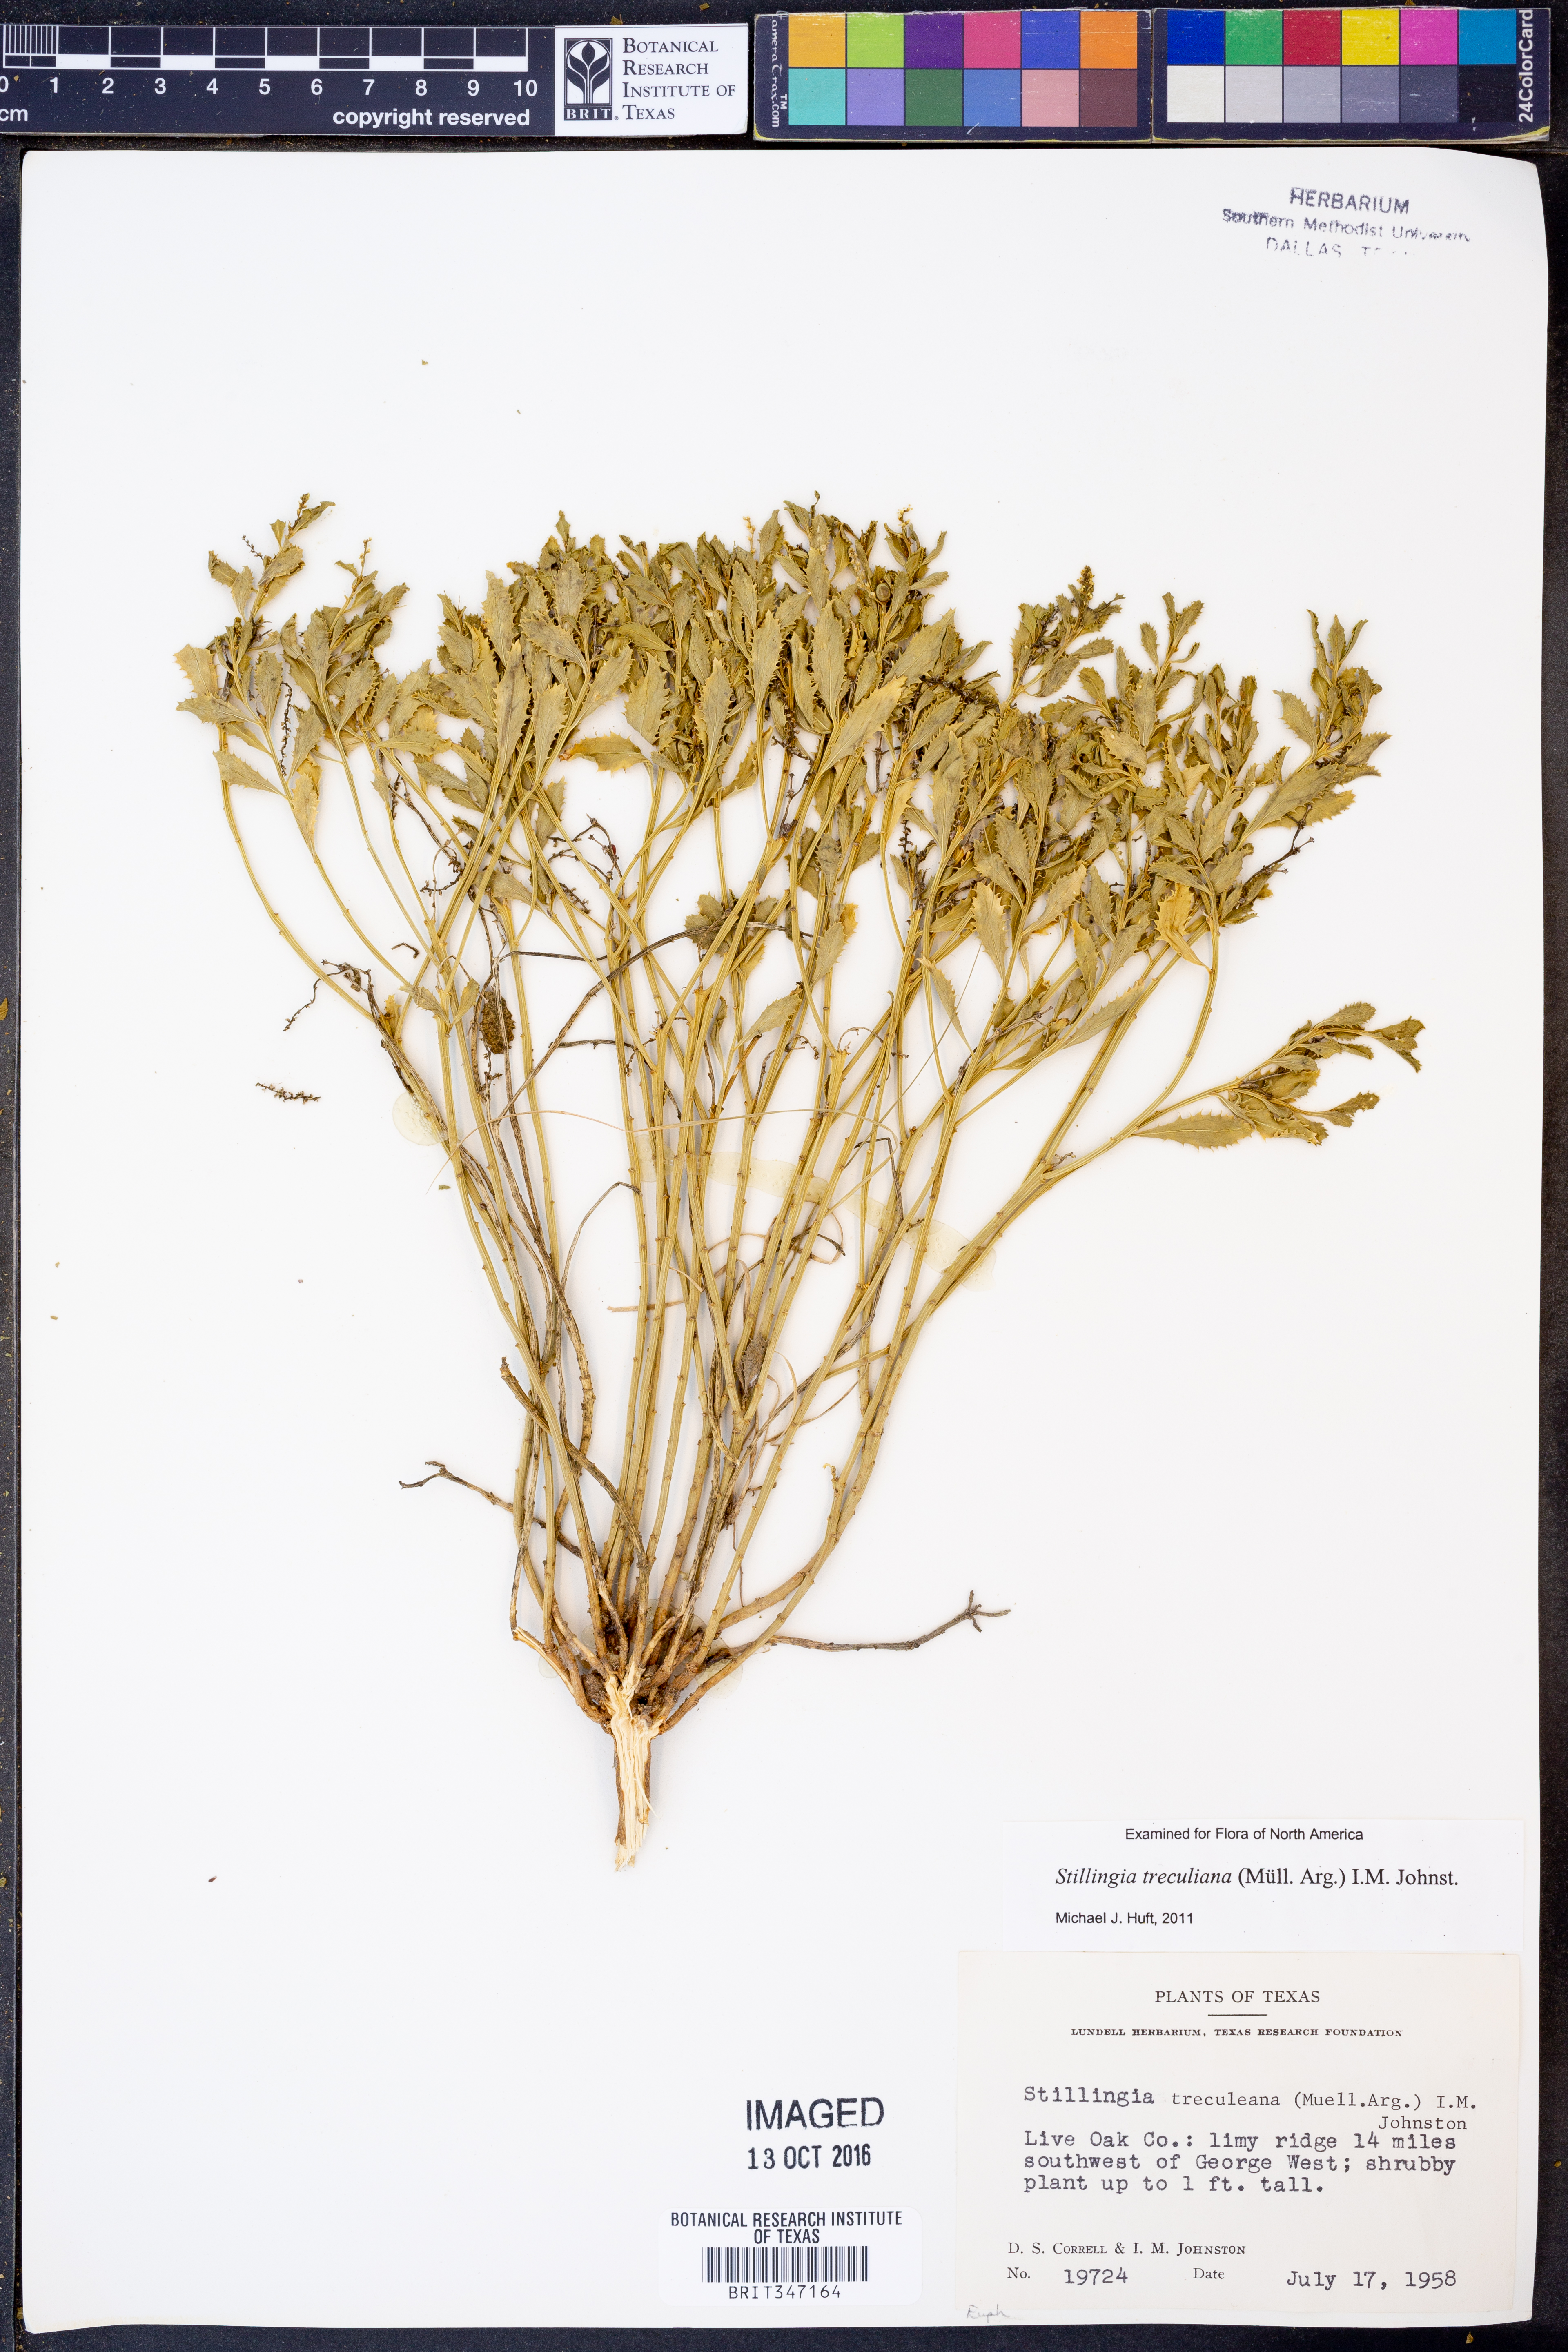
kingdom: Plantae
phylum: Tracheophyta
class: Magnoliopsida
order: Malpighiales
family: Euphorbiaceae
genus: Stillingia
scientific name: Stillingia treculiana
